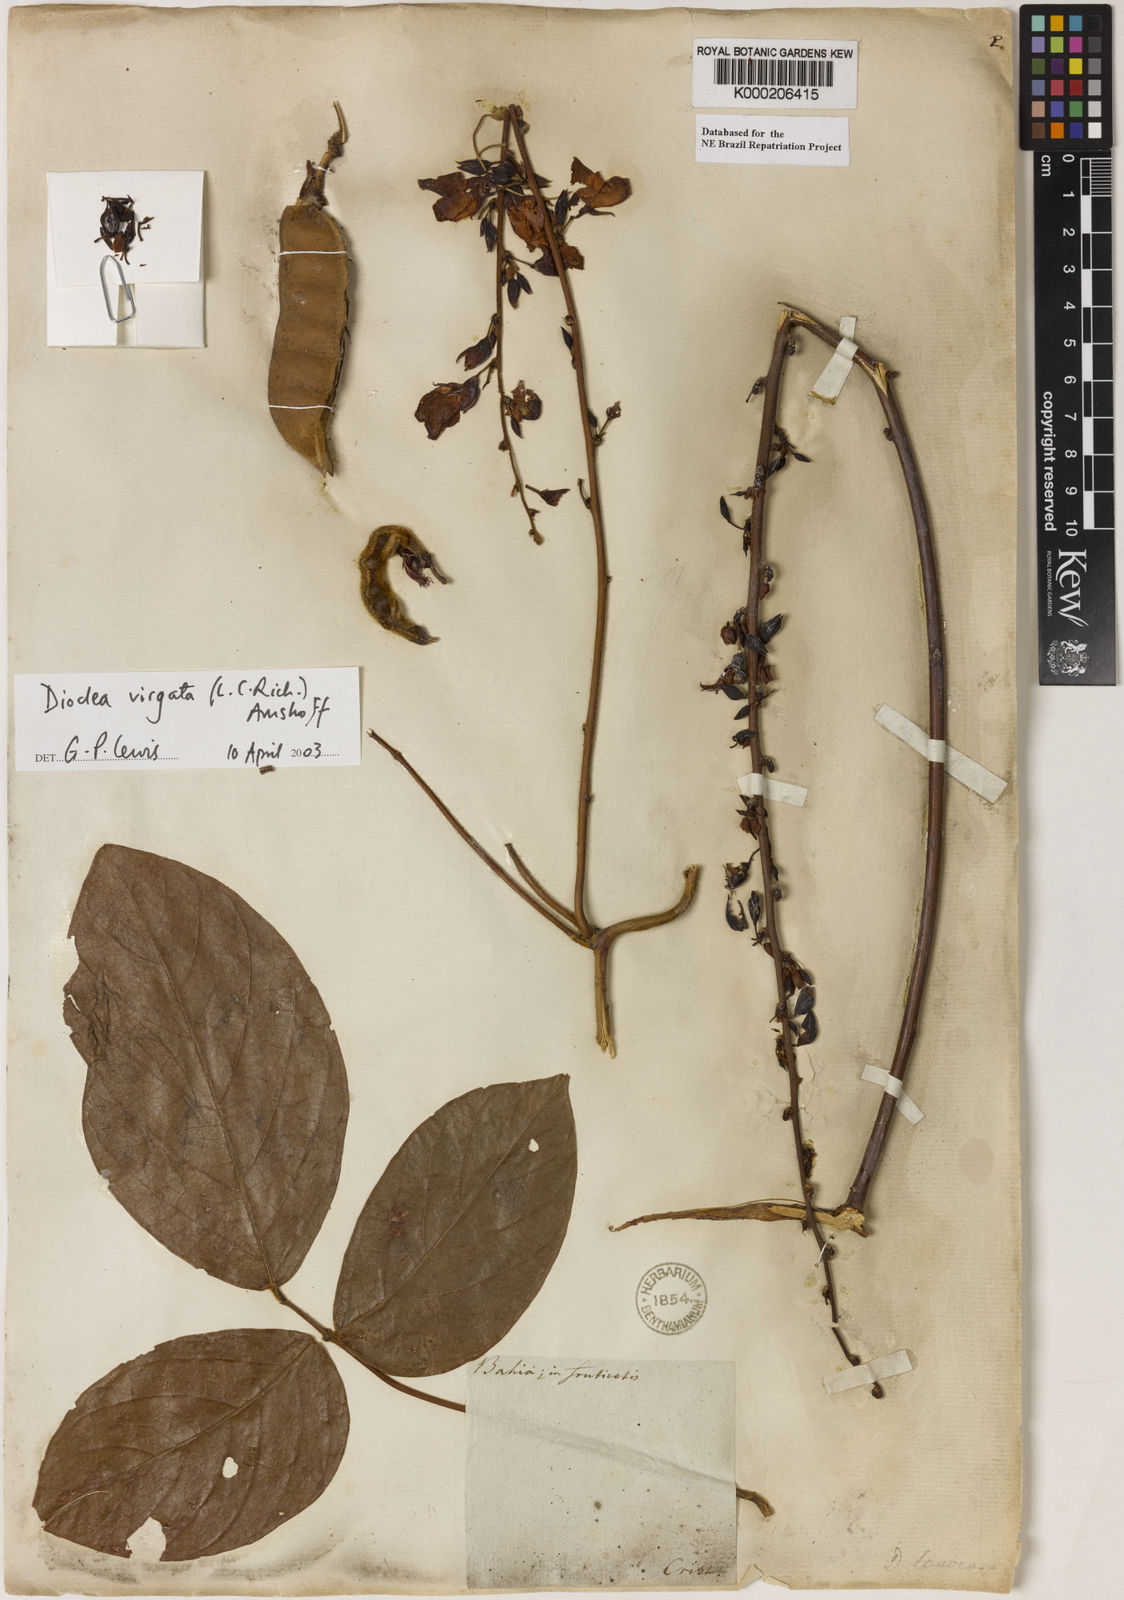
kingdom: Plantae
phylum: Tracheophyta
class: Magnoliopsida
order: Fabales
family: Fabaceae
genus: Dioclea
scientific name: Dioclea virgata
